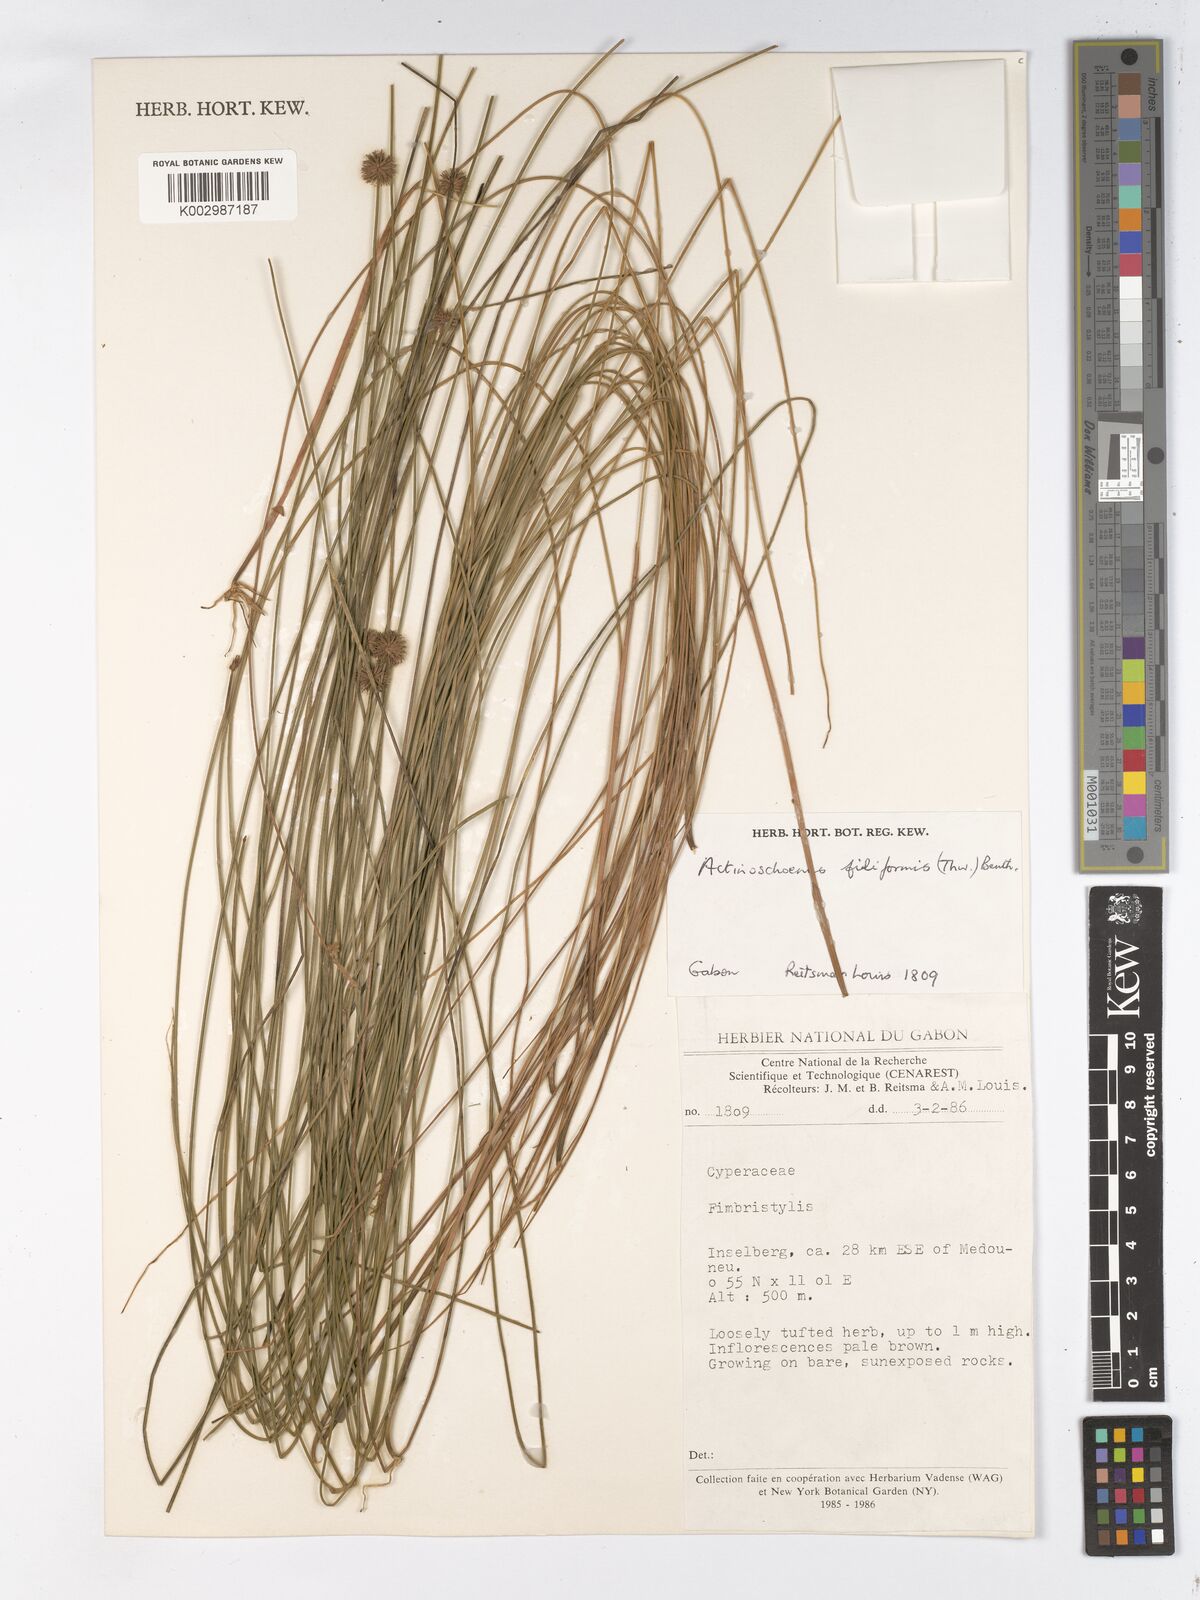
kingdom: Plantae
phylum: Tracheophyta
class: Liliopsida
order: Poales
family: Cyperaceae
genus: Actinoschoenus
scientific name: Actinoschoenus aphyllus
